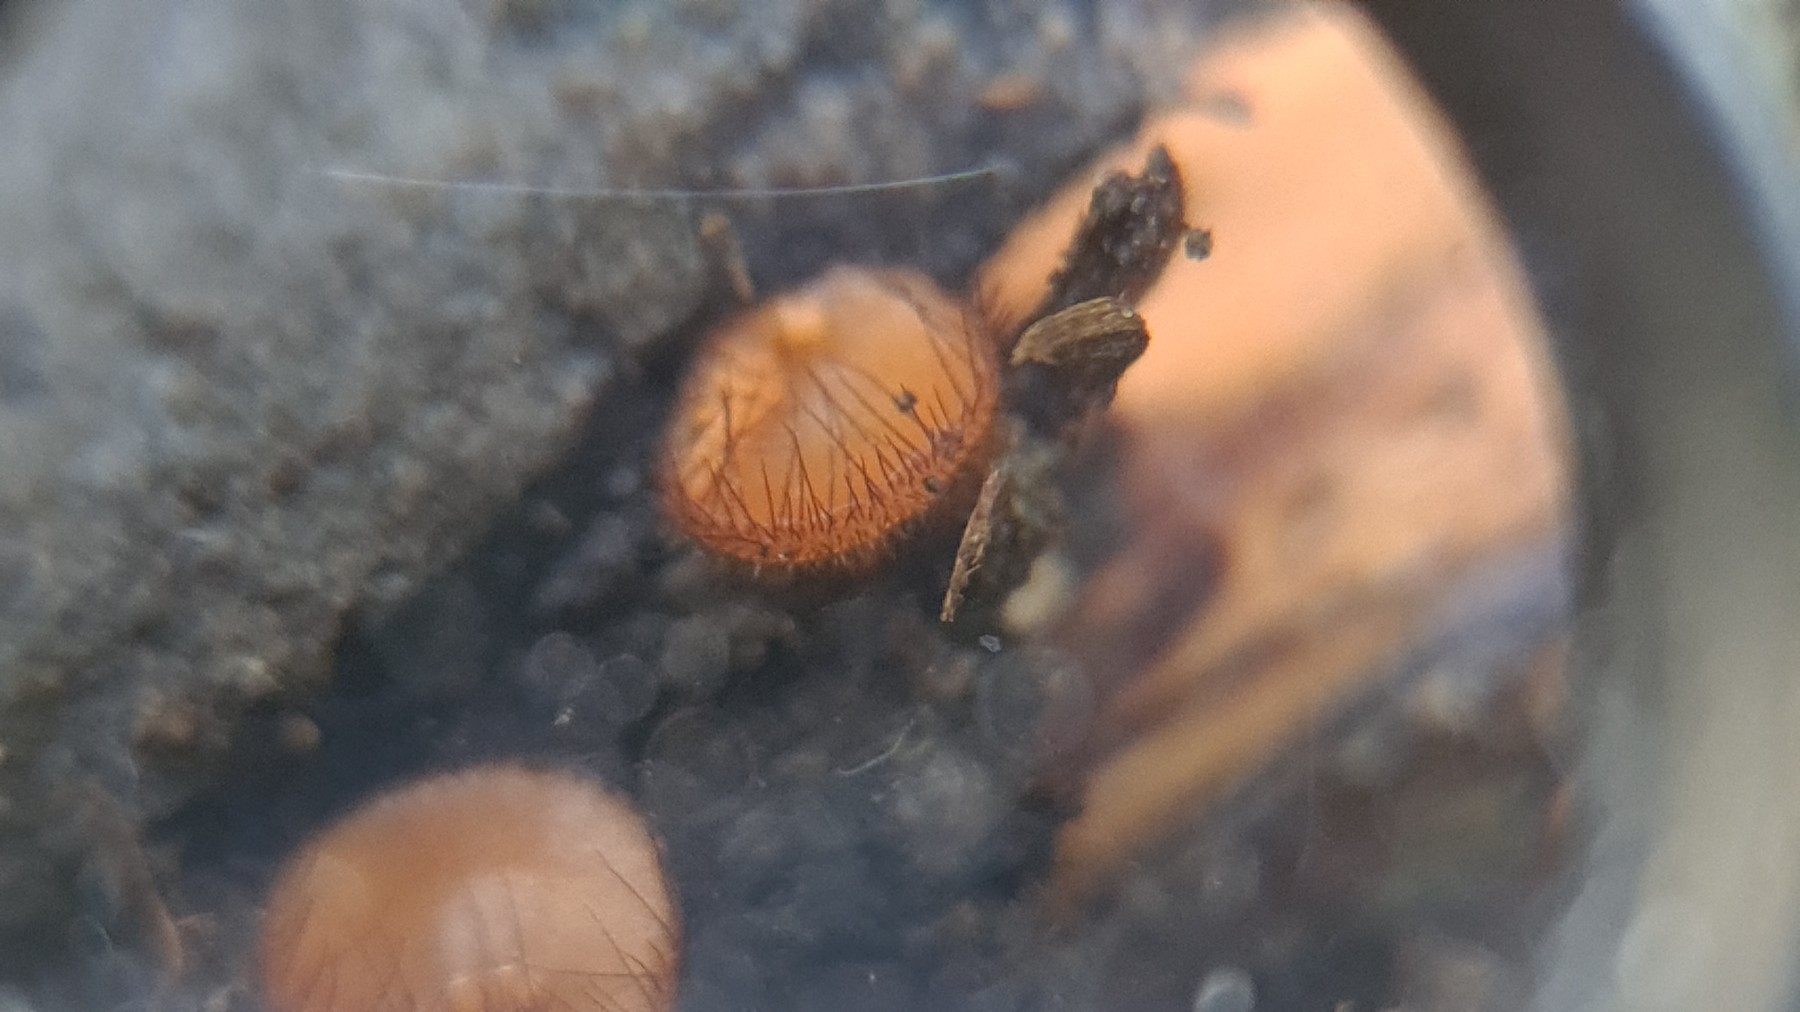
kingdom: Fungi
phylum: Ascomycota
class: Pezizomycetes
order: Pezizales
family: Pyronemataceae
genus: Scutellinia
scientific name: Scutellinia scutellata
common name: frynset skjoldbæger
